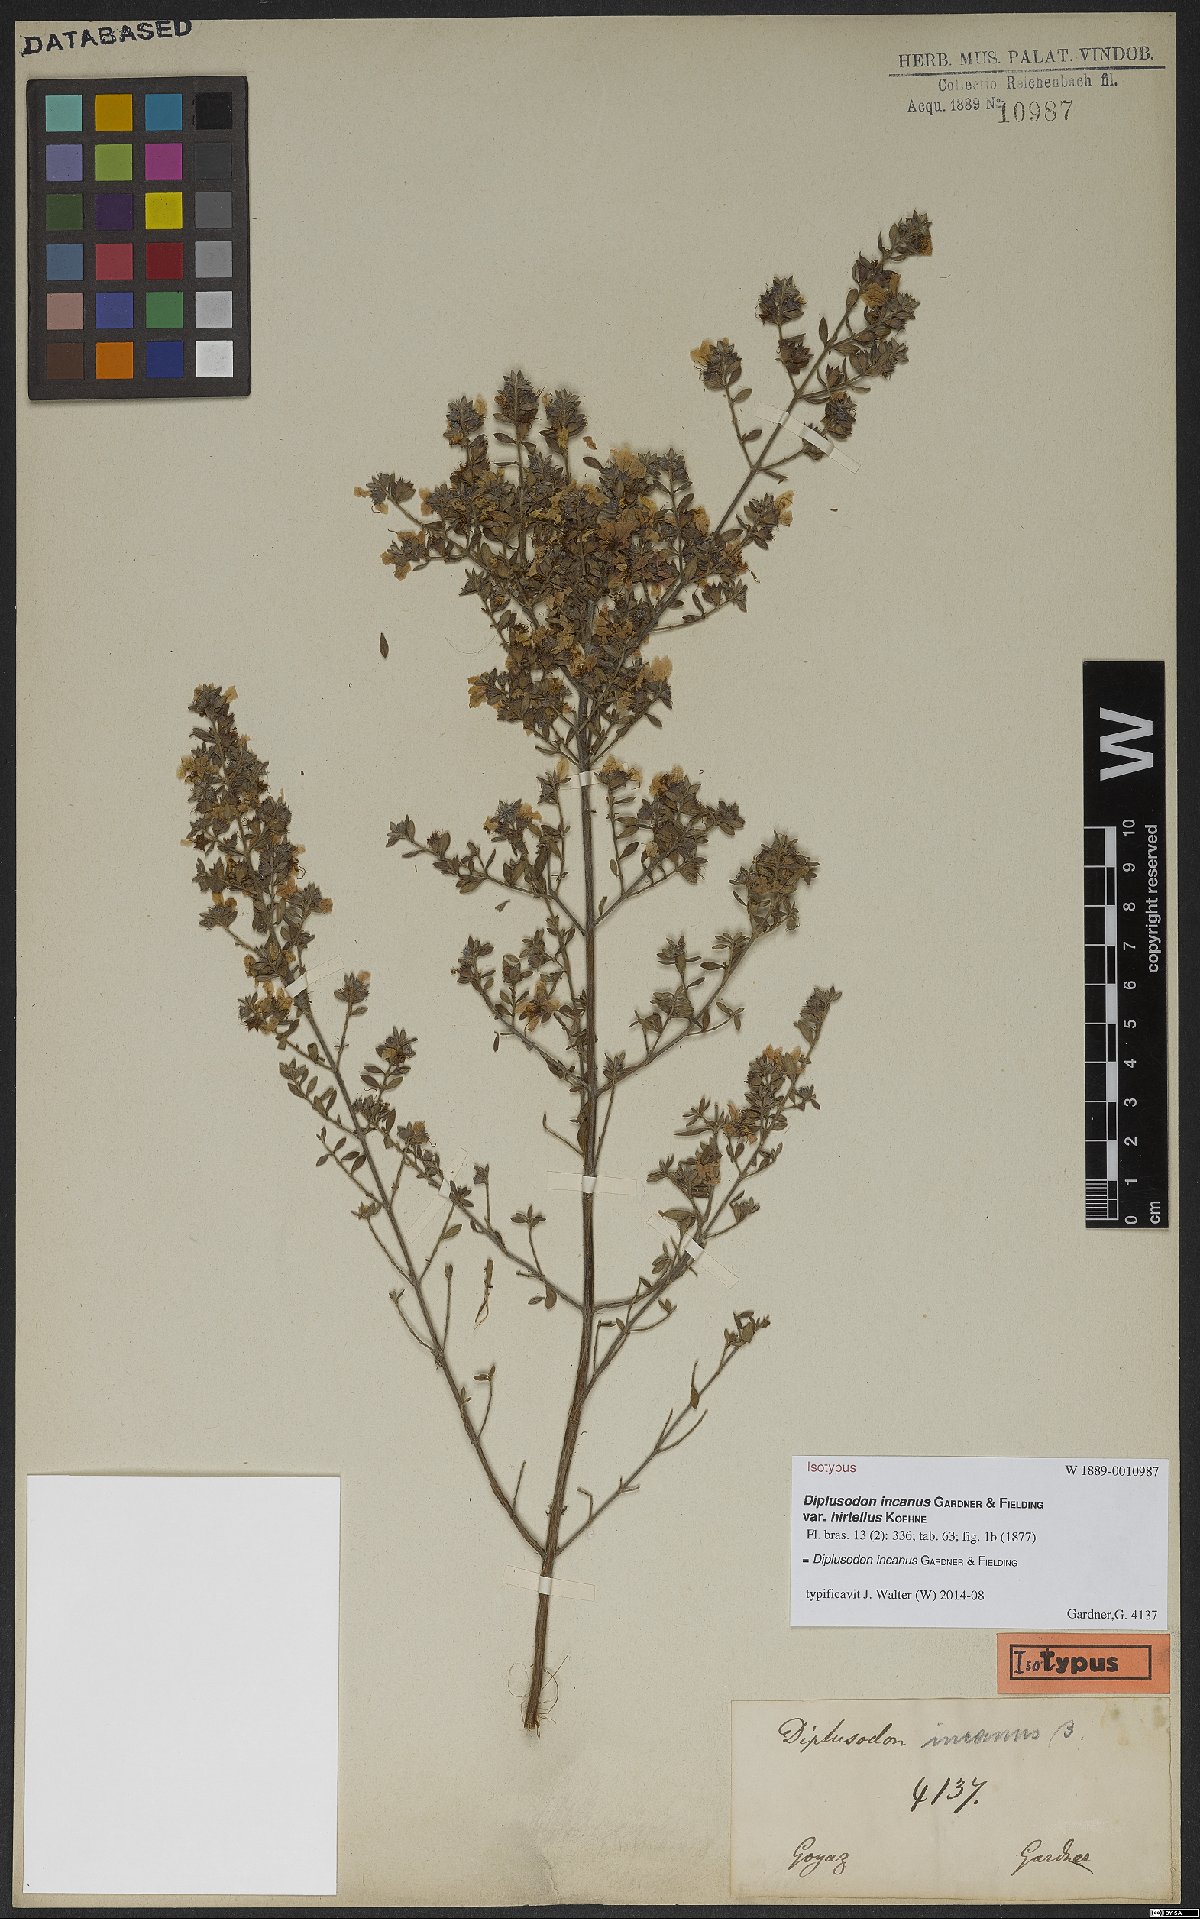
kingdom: Plantae
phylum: Tracheophyta
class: Magnoliopsida
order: Myrtales
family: Lythraceae
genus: Diplusodon
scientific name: Diplusodon incanus
